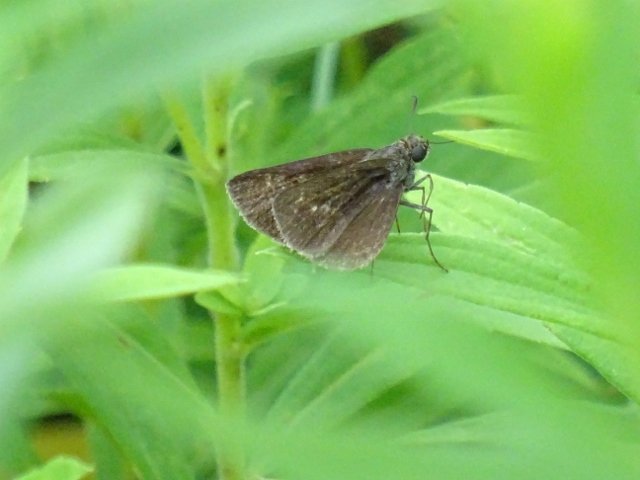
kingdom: Animalia
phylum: Arthropoda
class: Insecta
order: Lepidoptera
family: Hesperiidae
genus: Euphyes
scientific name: Euphyes vestris
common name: Dun Skipper
